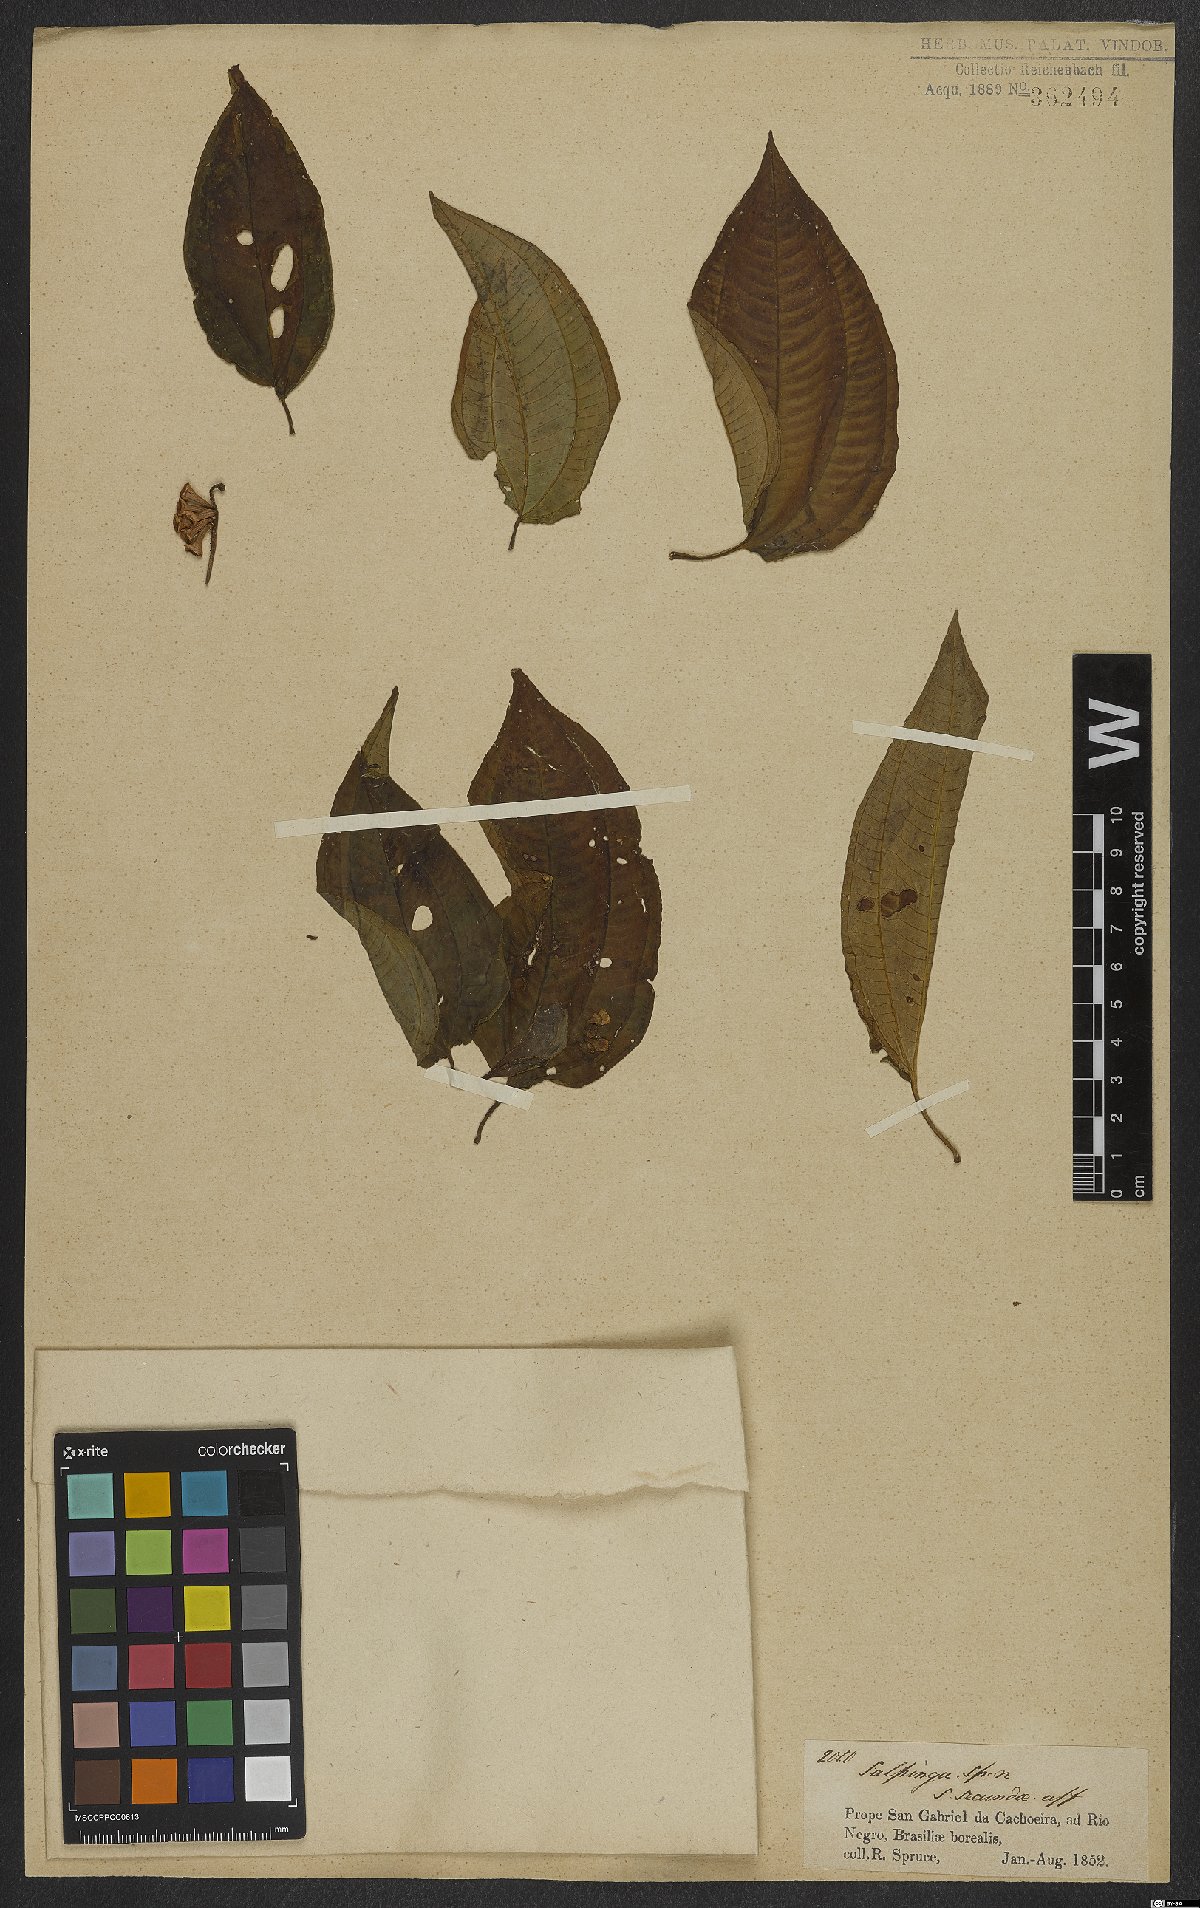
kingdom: Plantae
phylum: Tracheophyta
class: Magnoliopsida
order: Myrtales
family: Melastomataceae
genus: Salpinga
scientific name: Salpinga secunda
